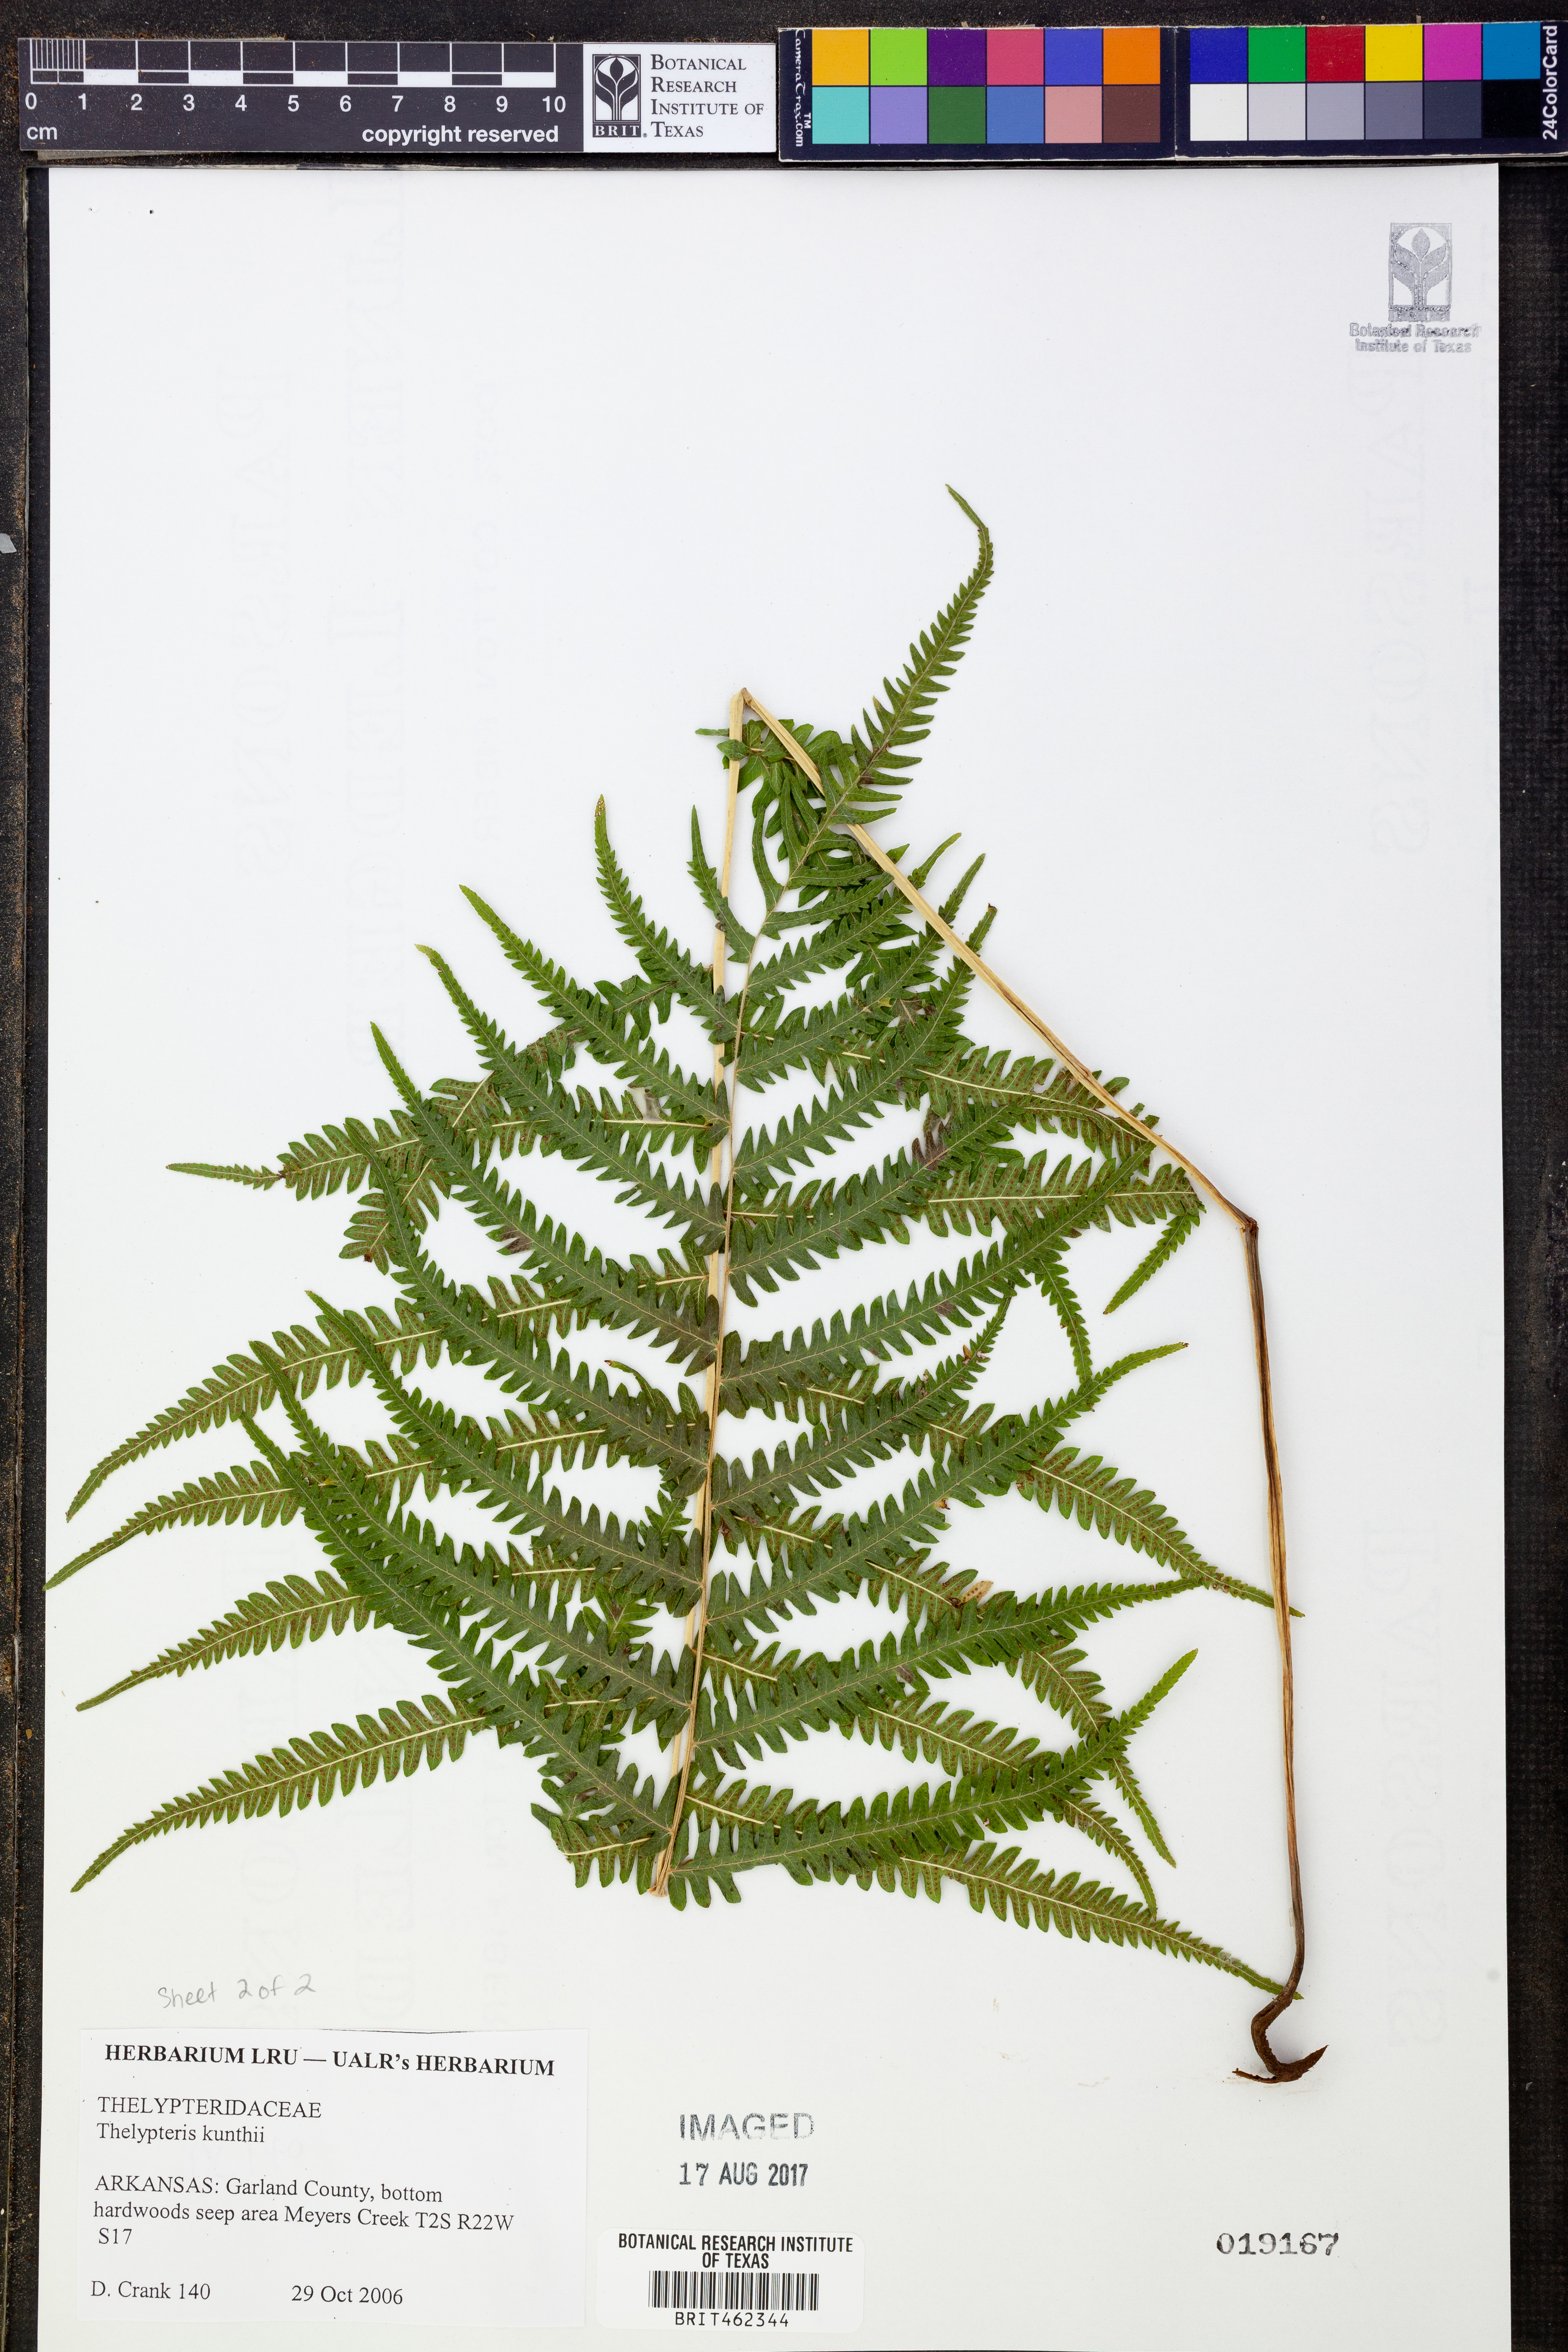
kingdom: Plantae
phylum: Tracheophyta
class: Polypodiopsida
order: Polypodiales
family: Thelypteridaceae
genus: Pelazoneuron
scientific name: Pelazoneuron kunthii
